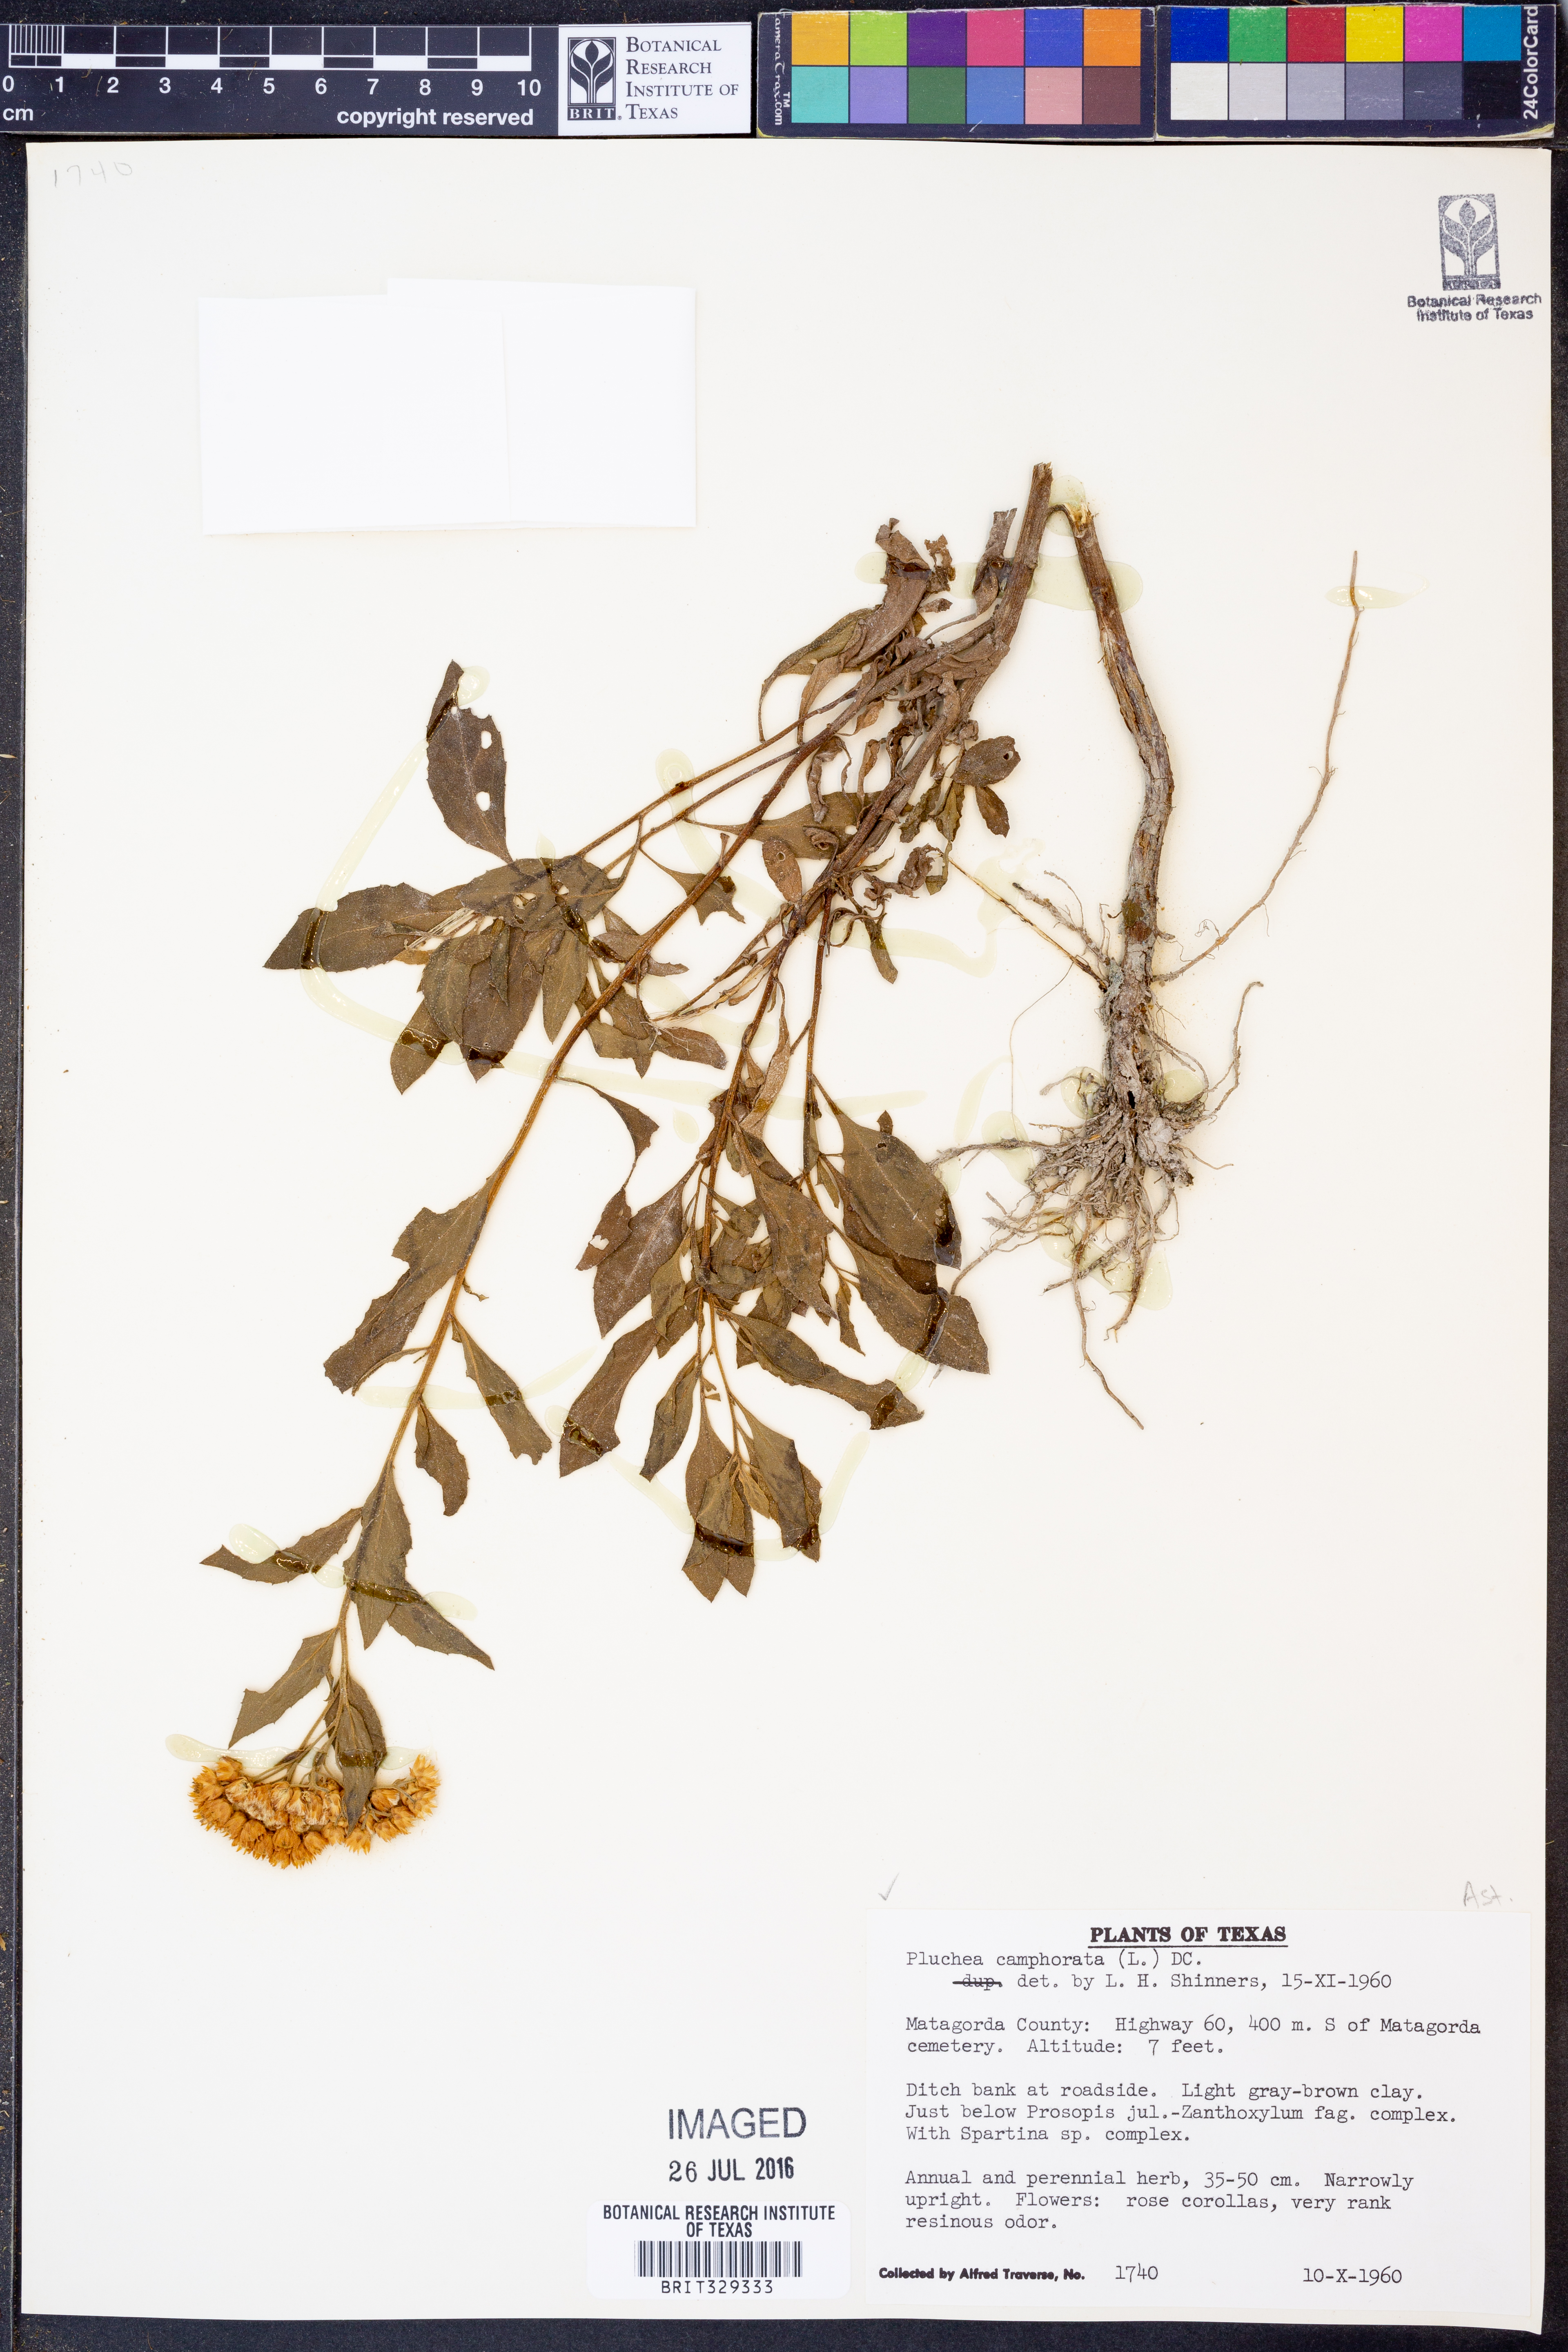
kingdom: Plantae
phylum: Tracheophyta
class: Magnoliopsida
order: Asterales
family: Asteraceae
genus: Pluchea
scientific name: Pluchea camphorata
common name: Camphor pluchea
